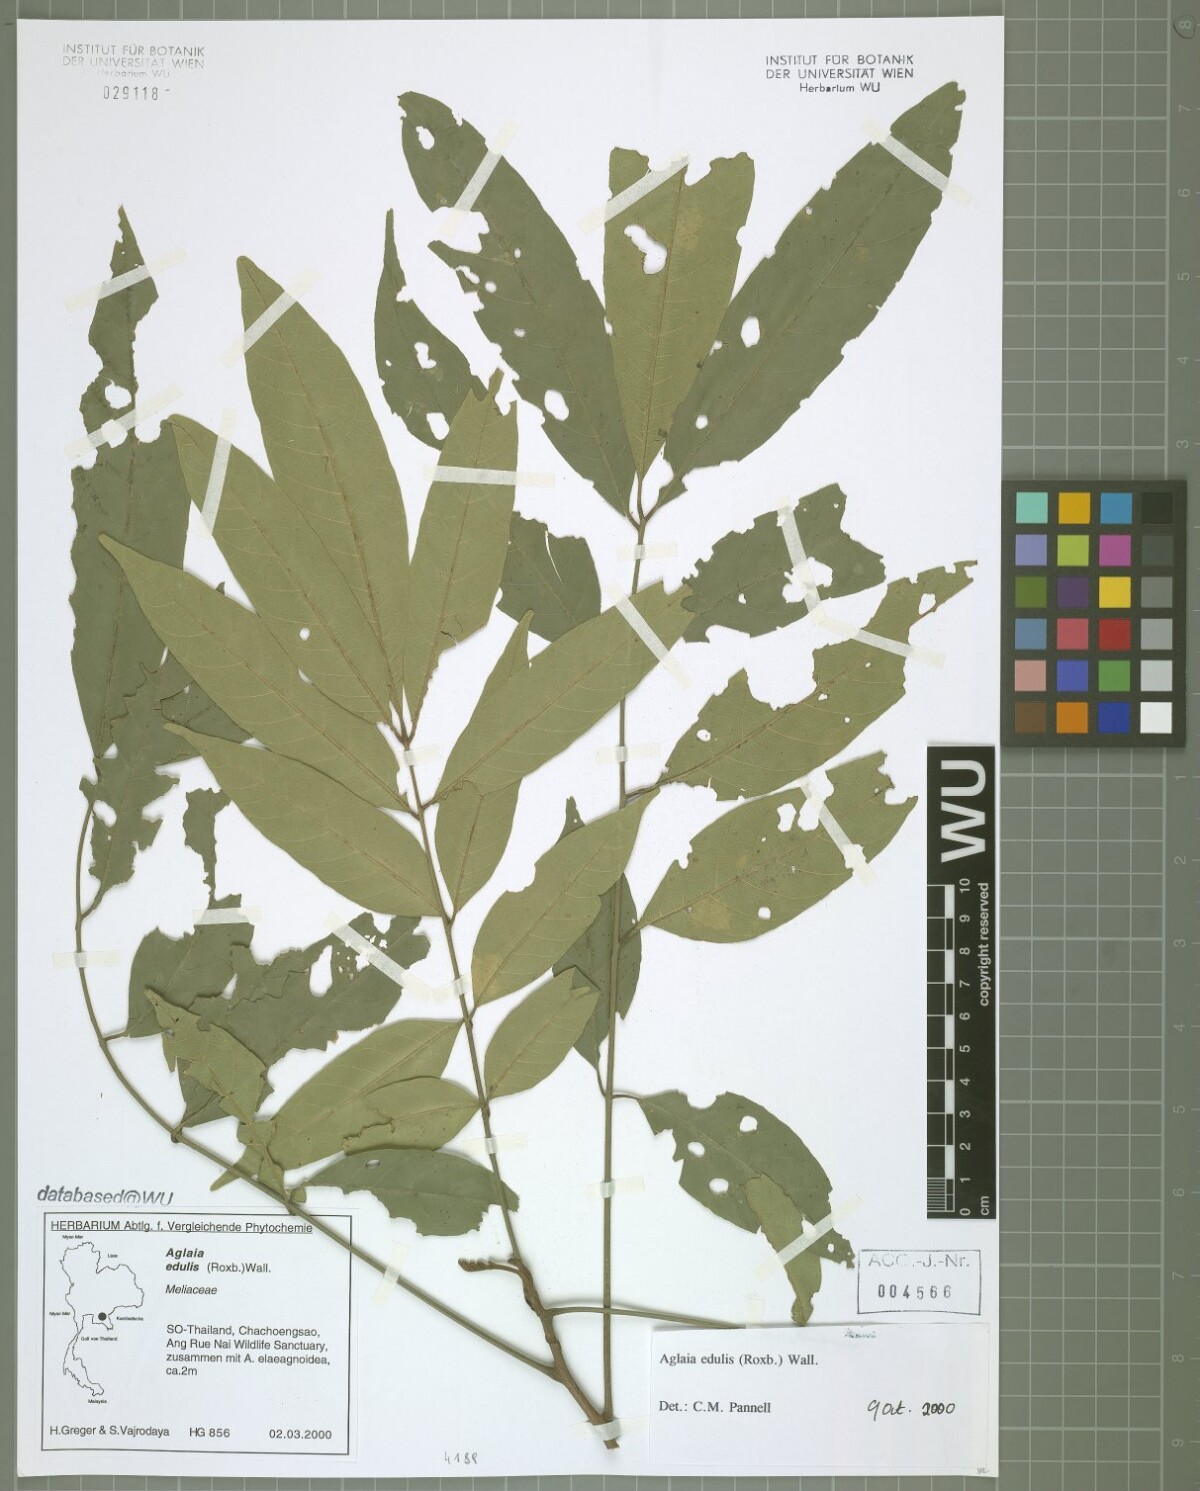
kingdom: Plantae
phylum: Tracheophyta
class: Magnoliopsida
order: Sapindales
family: Meliaceae
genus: Aglaia
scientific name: Aglaia edulis
